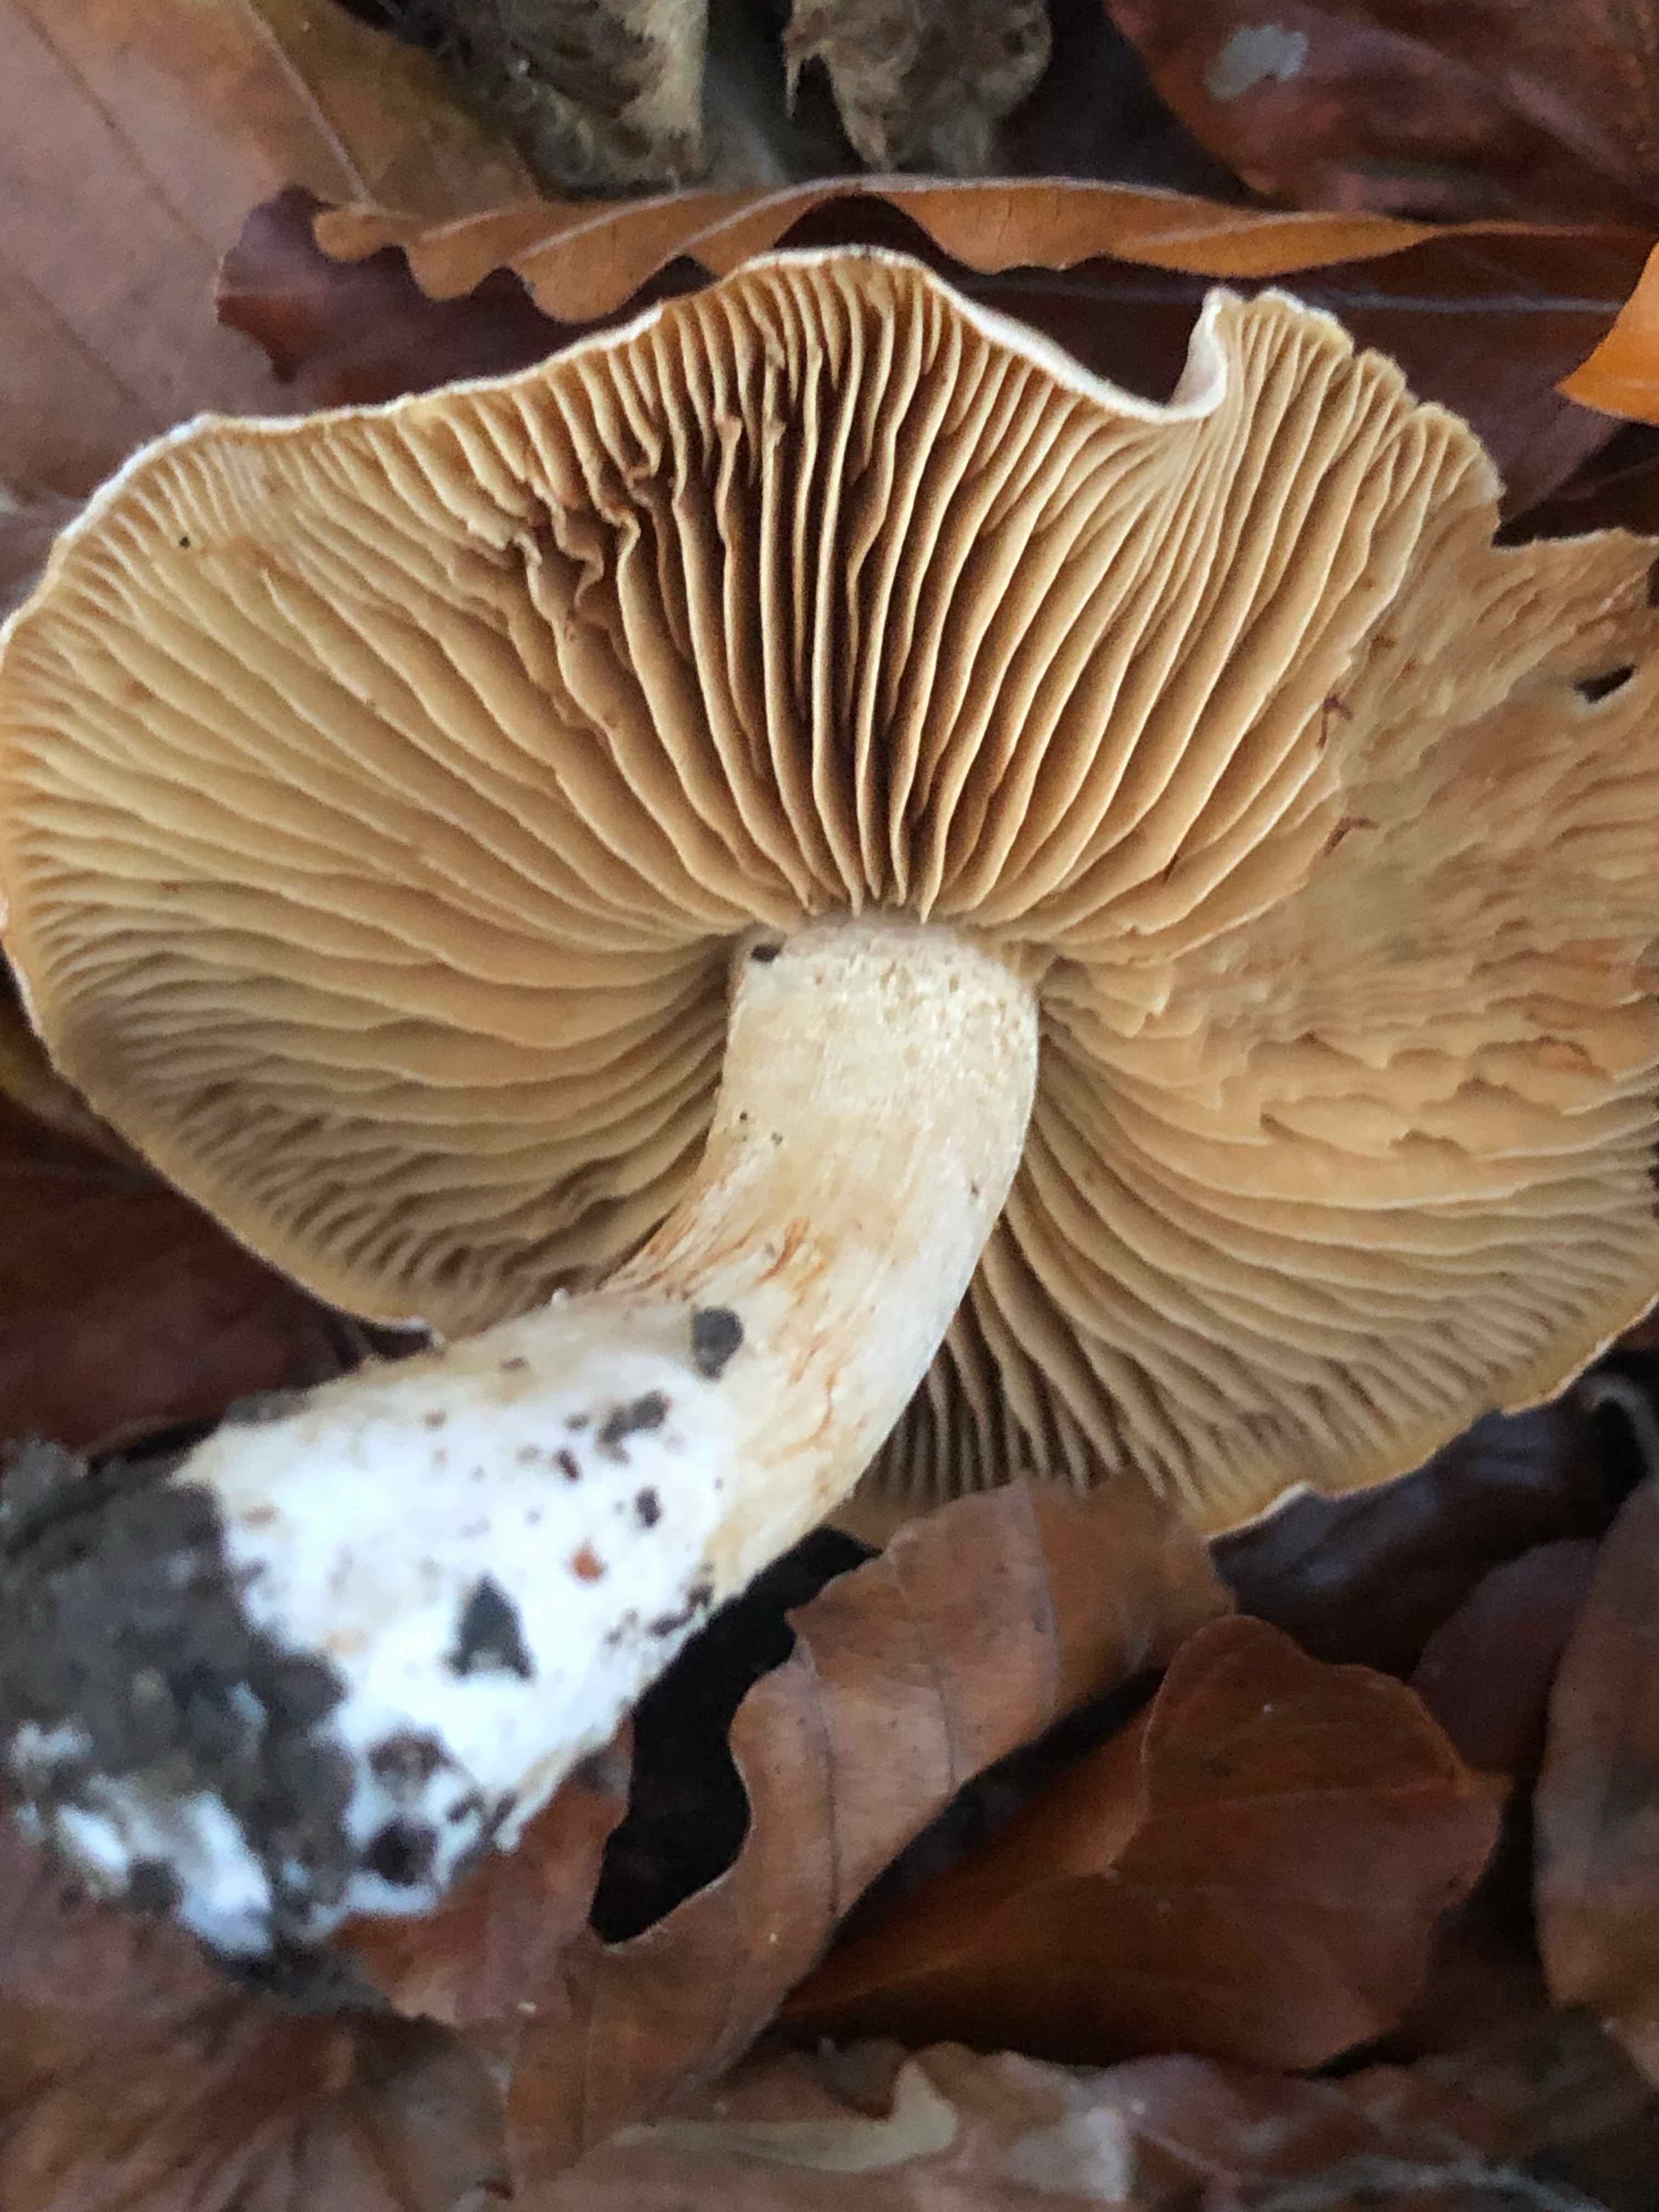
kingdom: Fungi
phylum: Basidiomycota
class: Agaricomycetes
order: Agaricales
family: Cortinariaceae
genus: Thaxterogaster
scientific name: Thaxterogaster barbatus
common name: elfenbens-slørhat
